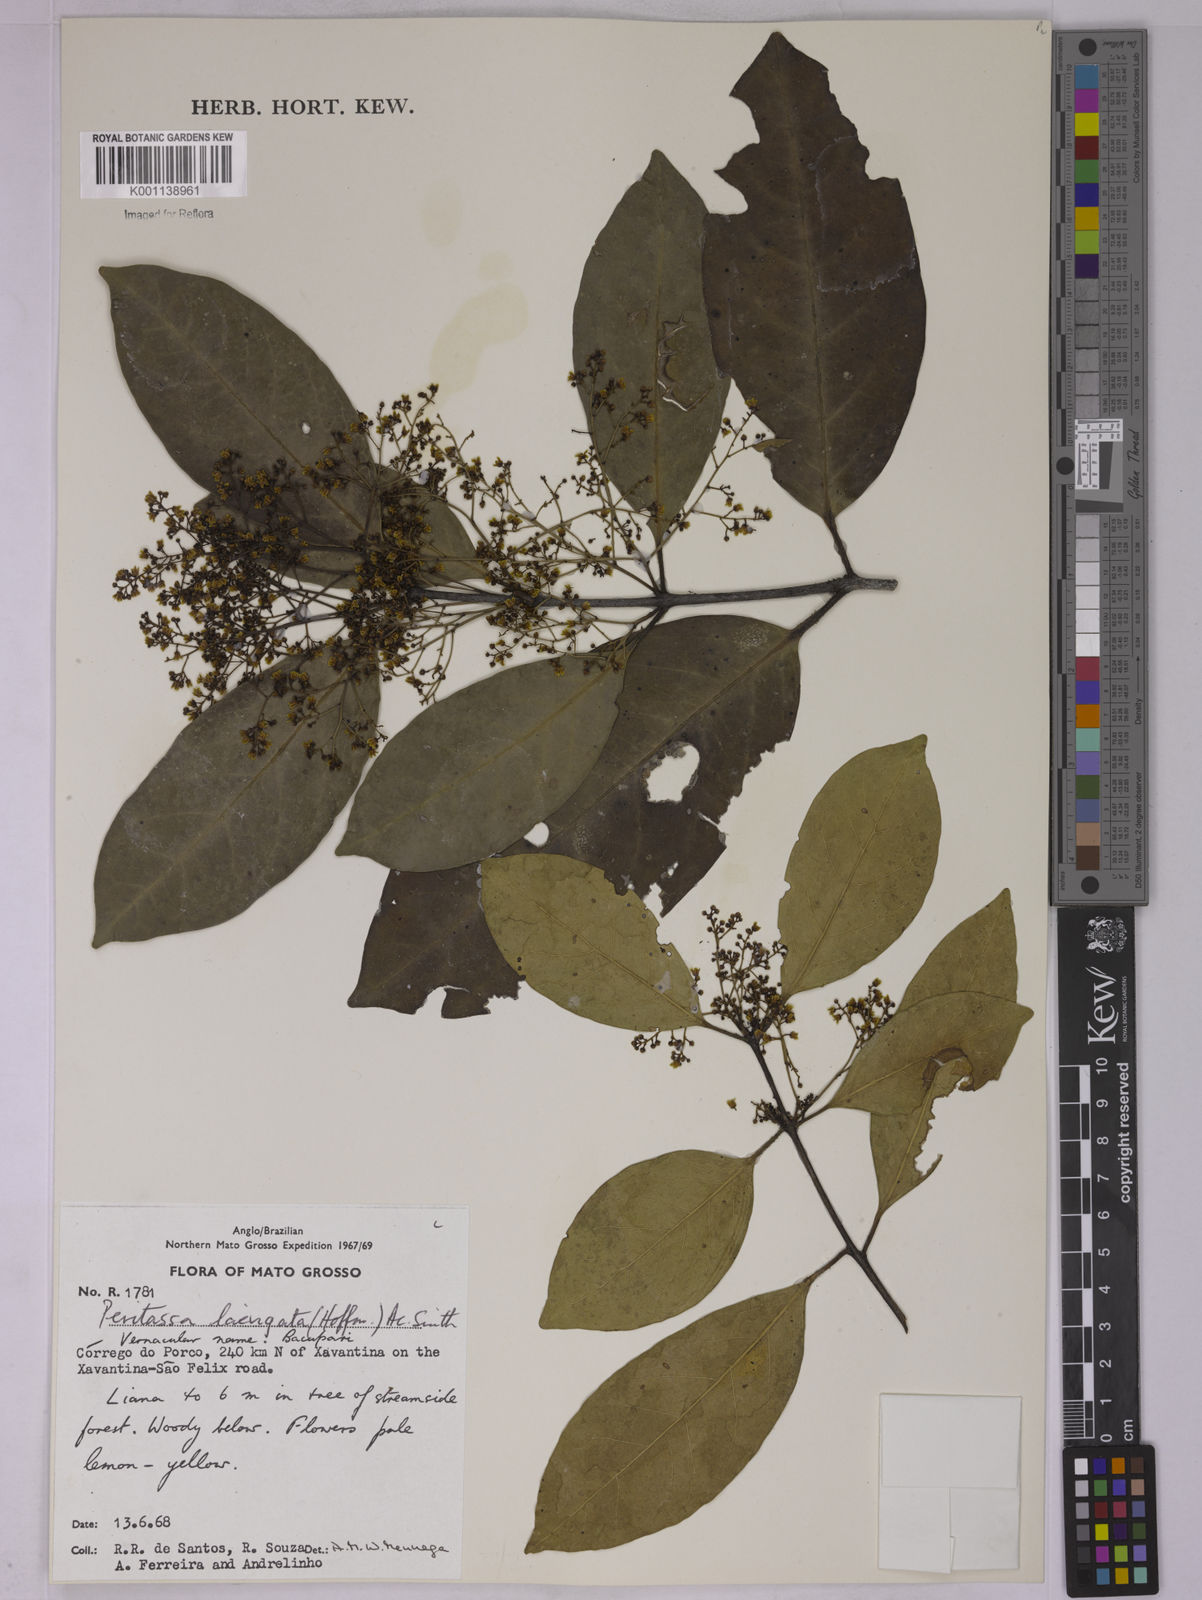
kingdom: Plantae
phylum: Tracheophyta
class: Magnoliopsida
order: Celastrales
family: Celastraceae
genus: Peritassa
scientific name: Peritassa laevigata
